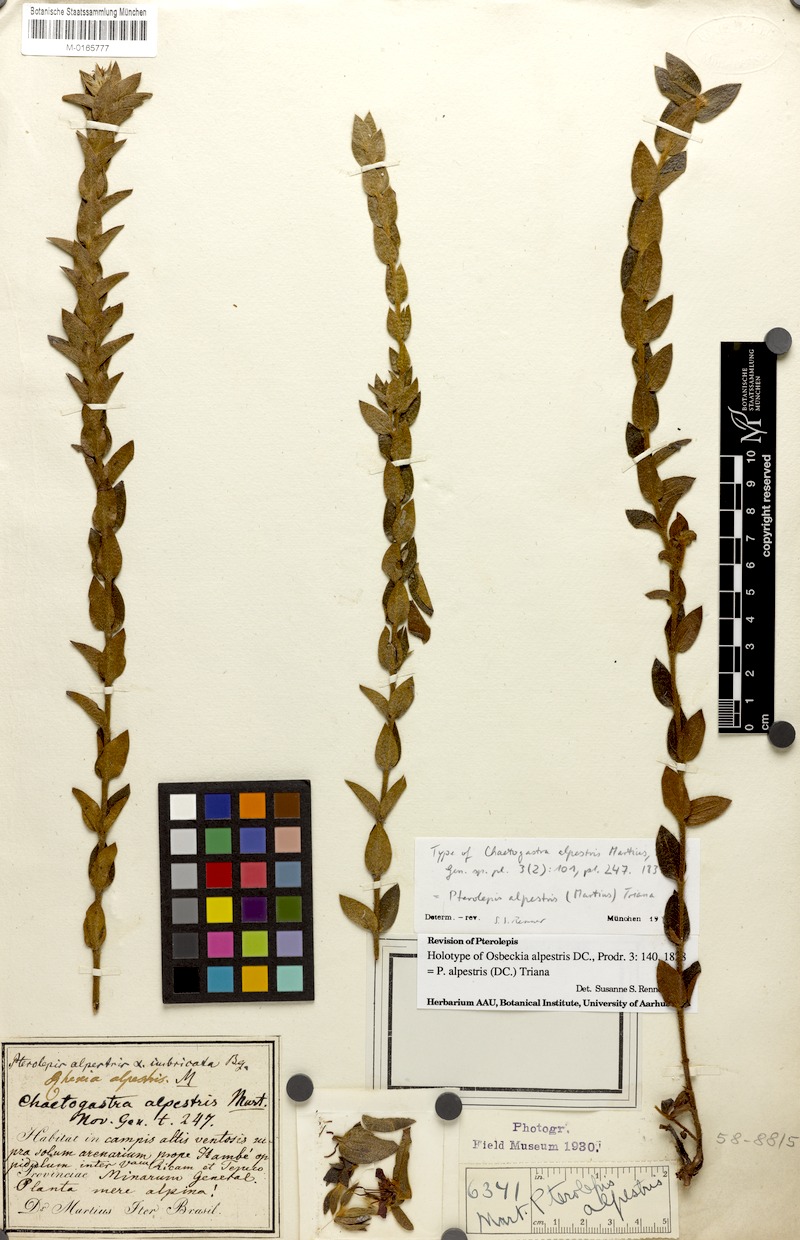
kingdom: Plantae
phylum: Tracheophyta
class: Magnoliopsida
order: Myrtales
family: Melastomataceae
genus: Pterolepis
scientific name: Pterolepis alpestris
